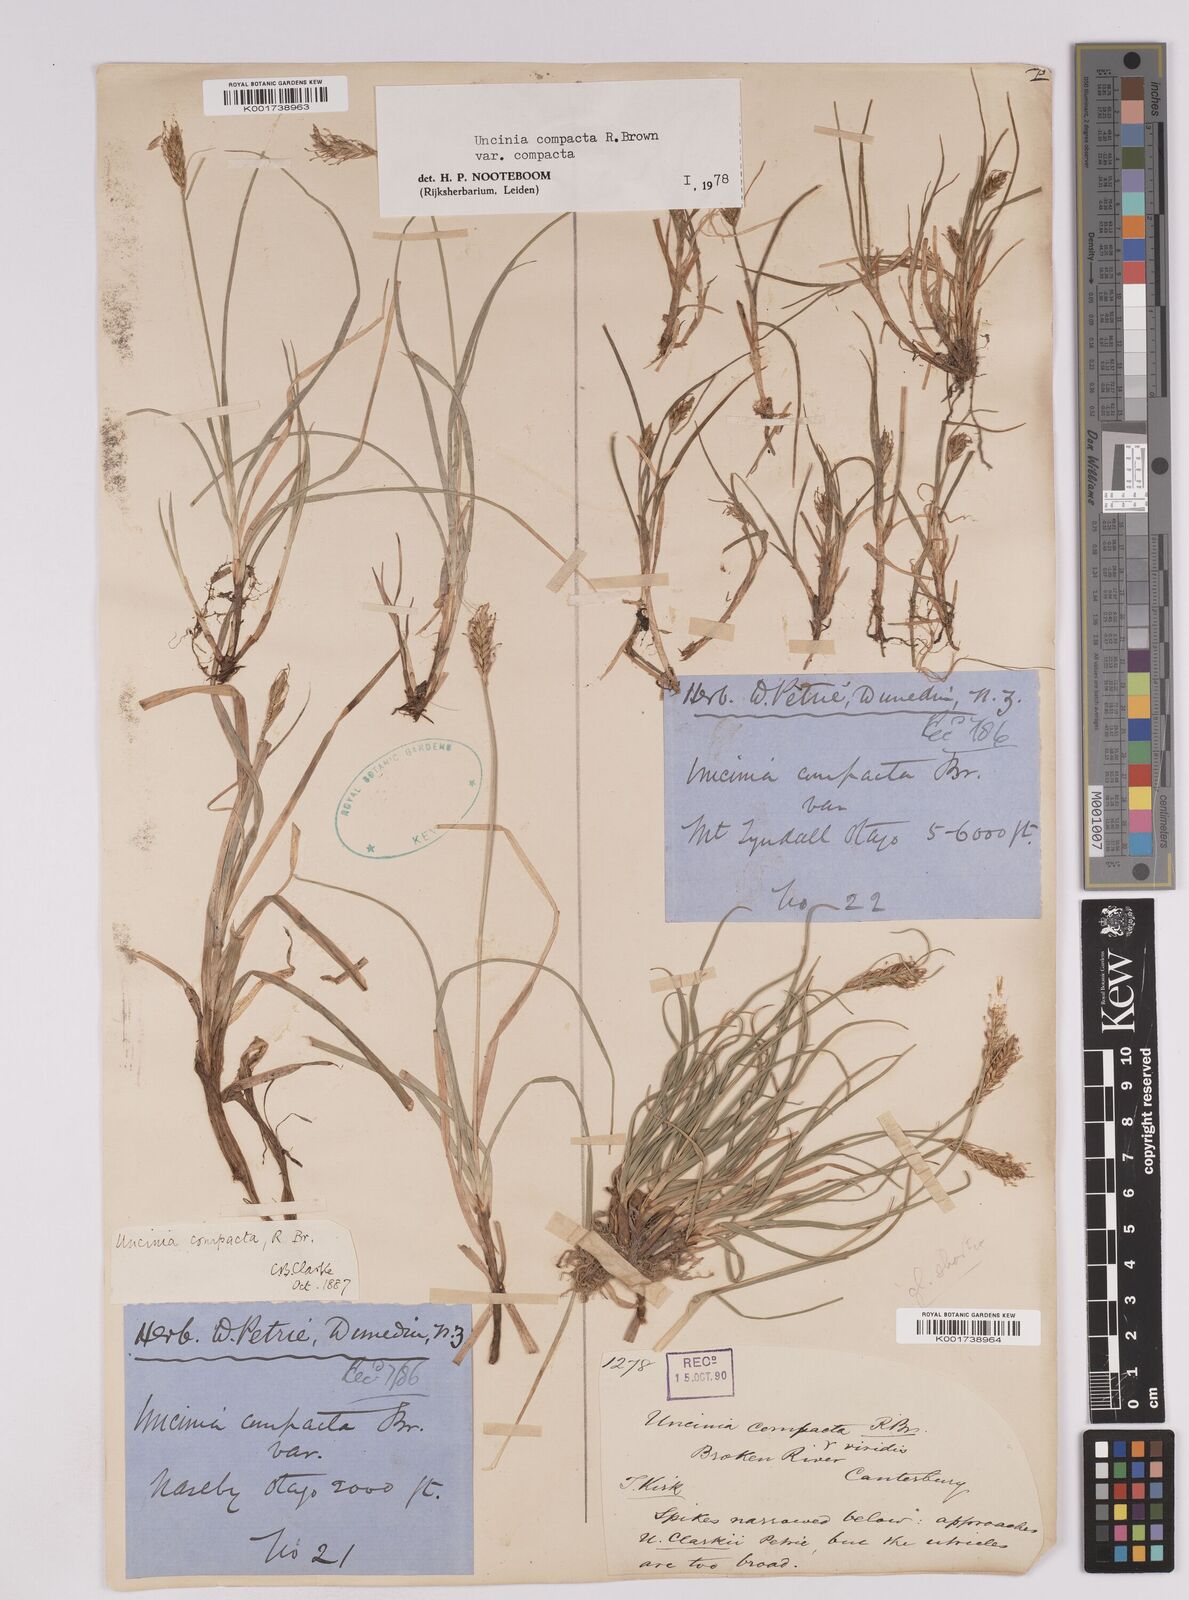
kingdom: Plantae
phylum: Tracheophyta
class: Liliopsida
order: Poales
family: Cyperaceae
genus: Carex
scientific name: Carex austrocompacta
